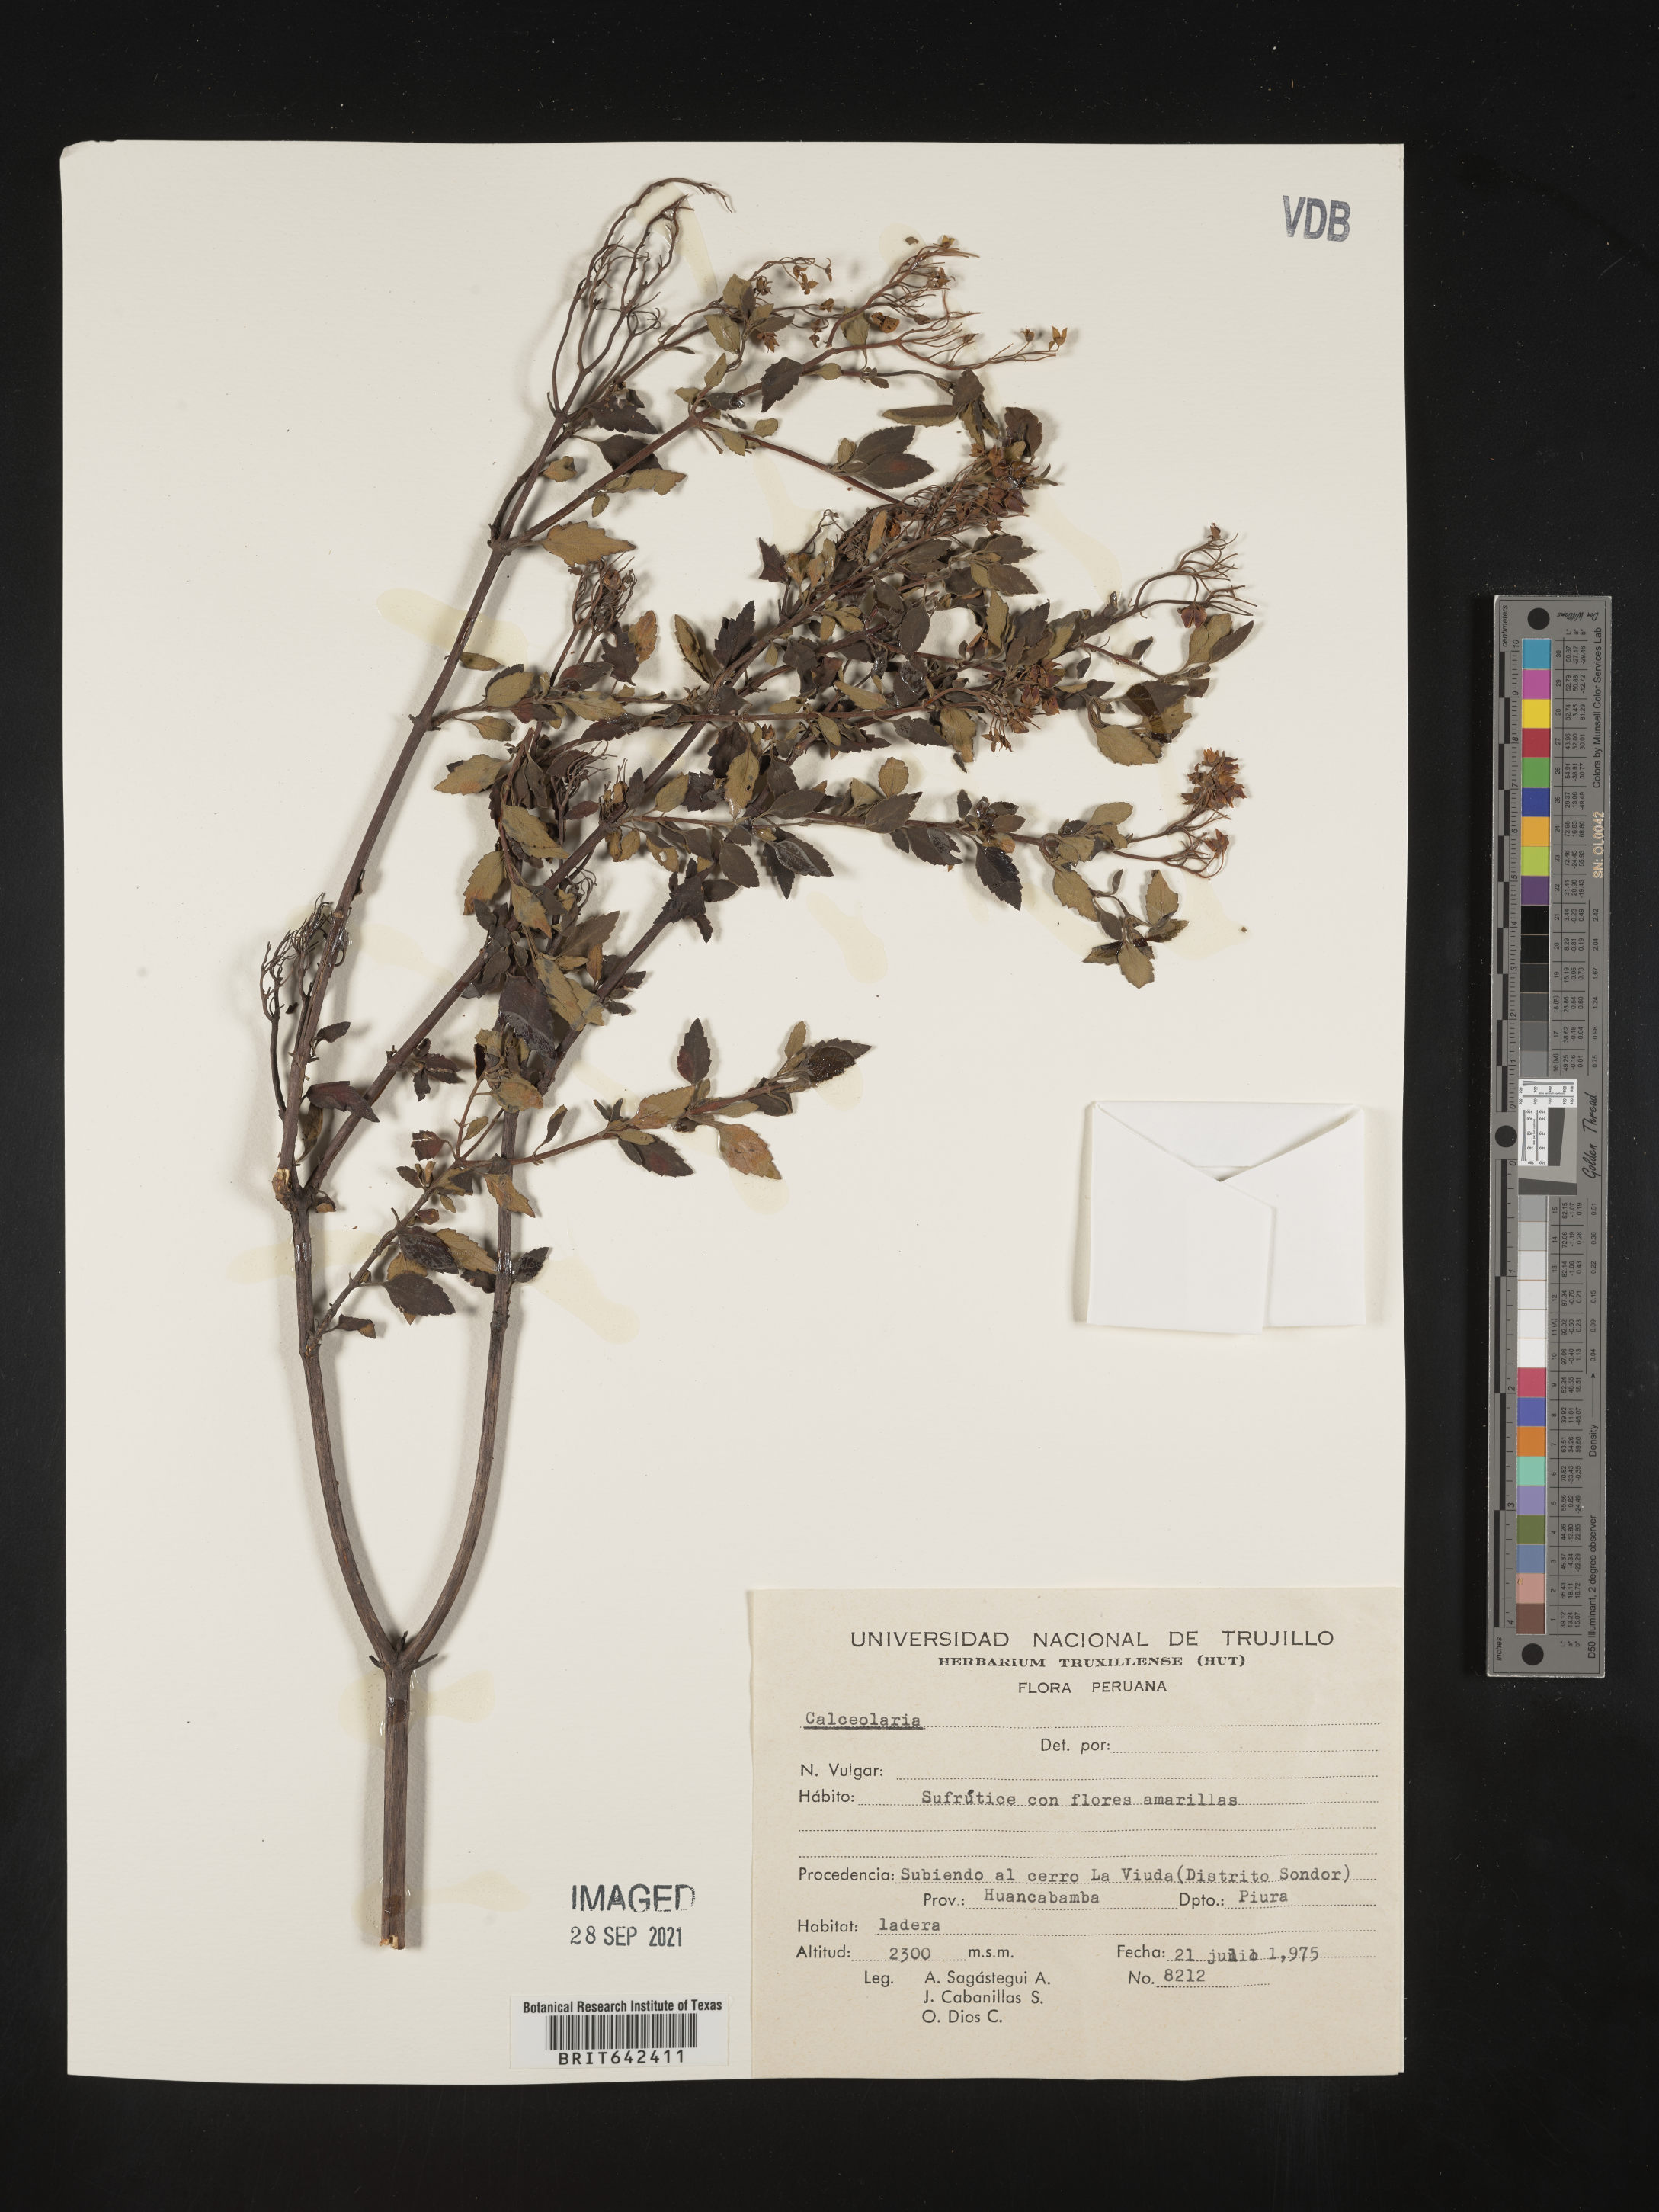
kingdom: Plantae
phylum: Tracheophyta
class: Magnoliopsida
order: Lamiales
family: Calceolariaceae
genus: Calceolaria
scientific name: Calceolaria
